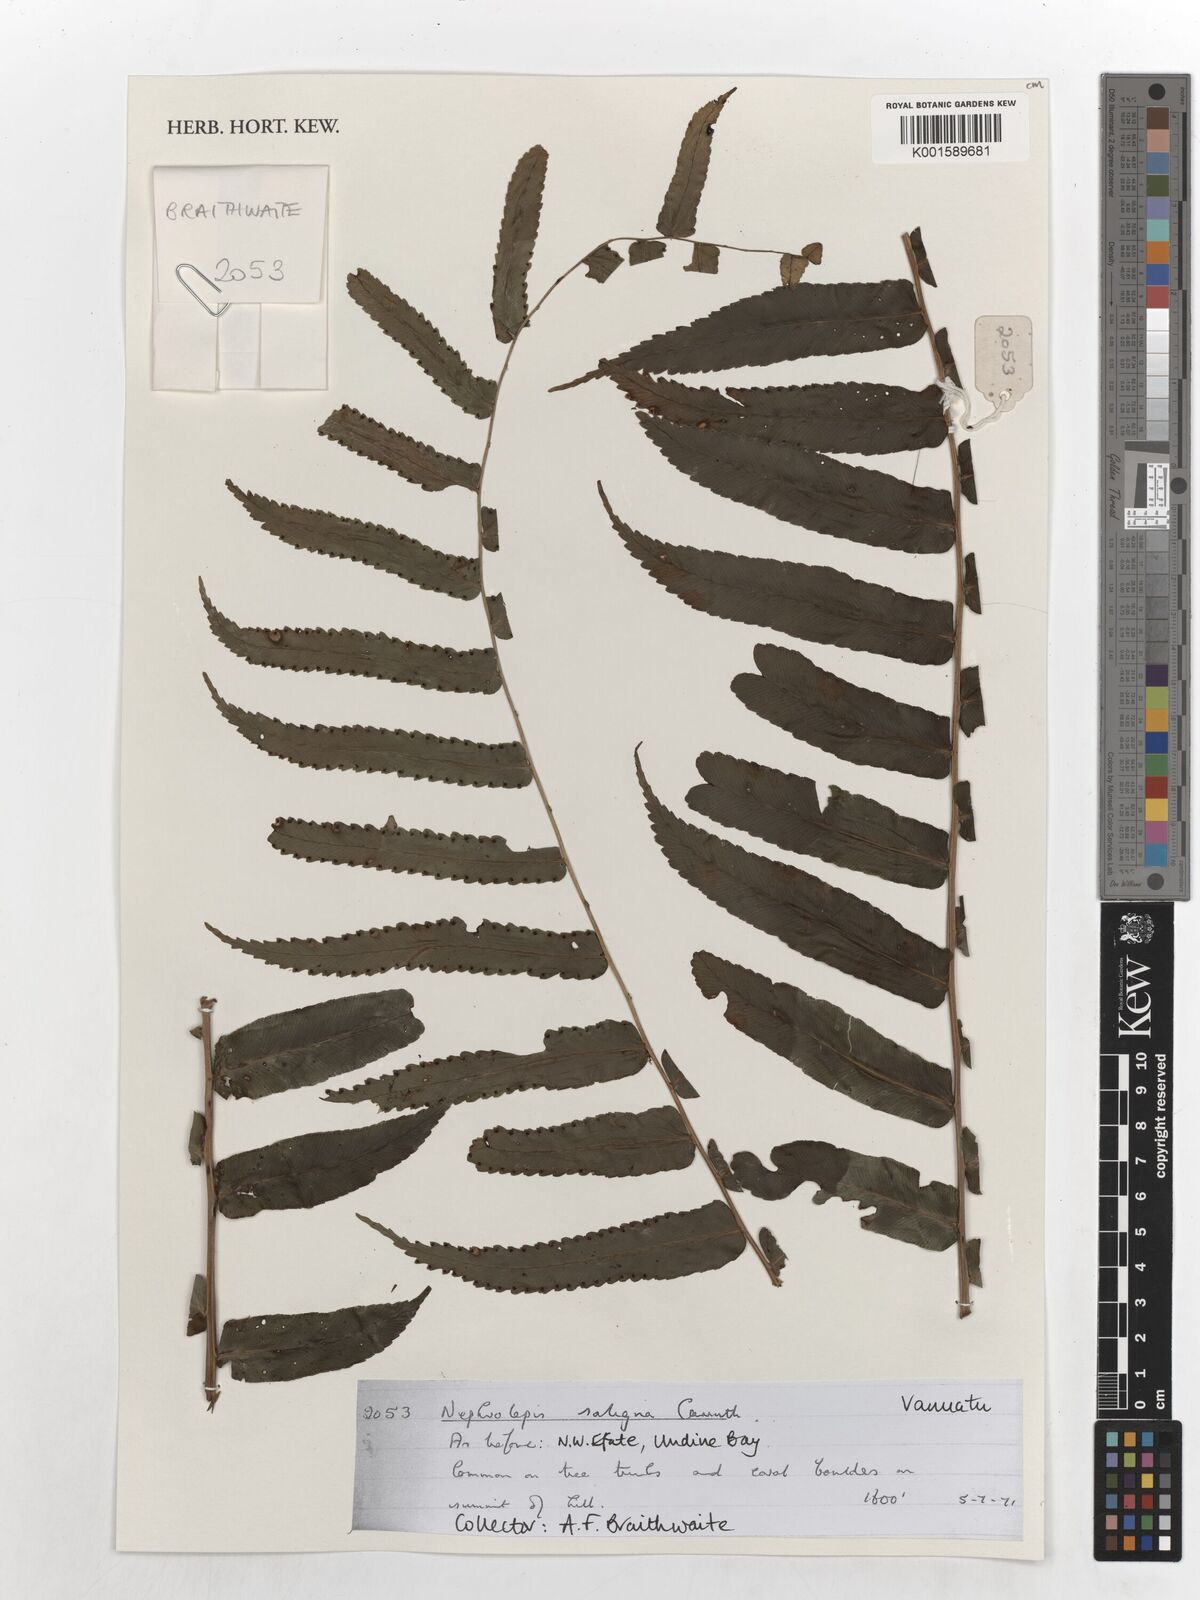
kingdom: Plantae
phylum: Tracheophyta
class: Polypodiopsida
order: Polypodiales
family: Nephrolepidaceae
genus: Nephrolepis
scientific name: Nephrolepis obliterata
